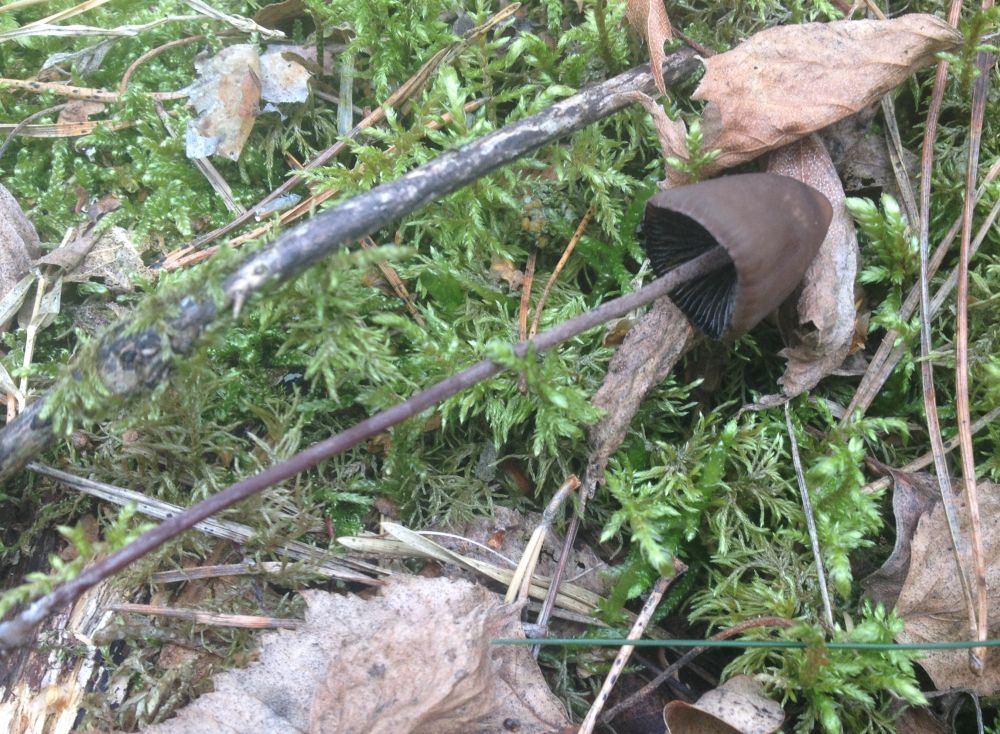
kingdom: Fungi
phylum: Basidiomycota
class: Agaricomycetes
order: Agaricales
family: Bolbitiaceae
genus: Panaeolus
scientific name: Panaeolus acuminatus
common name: høj glanshat
